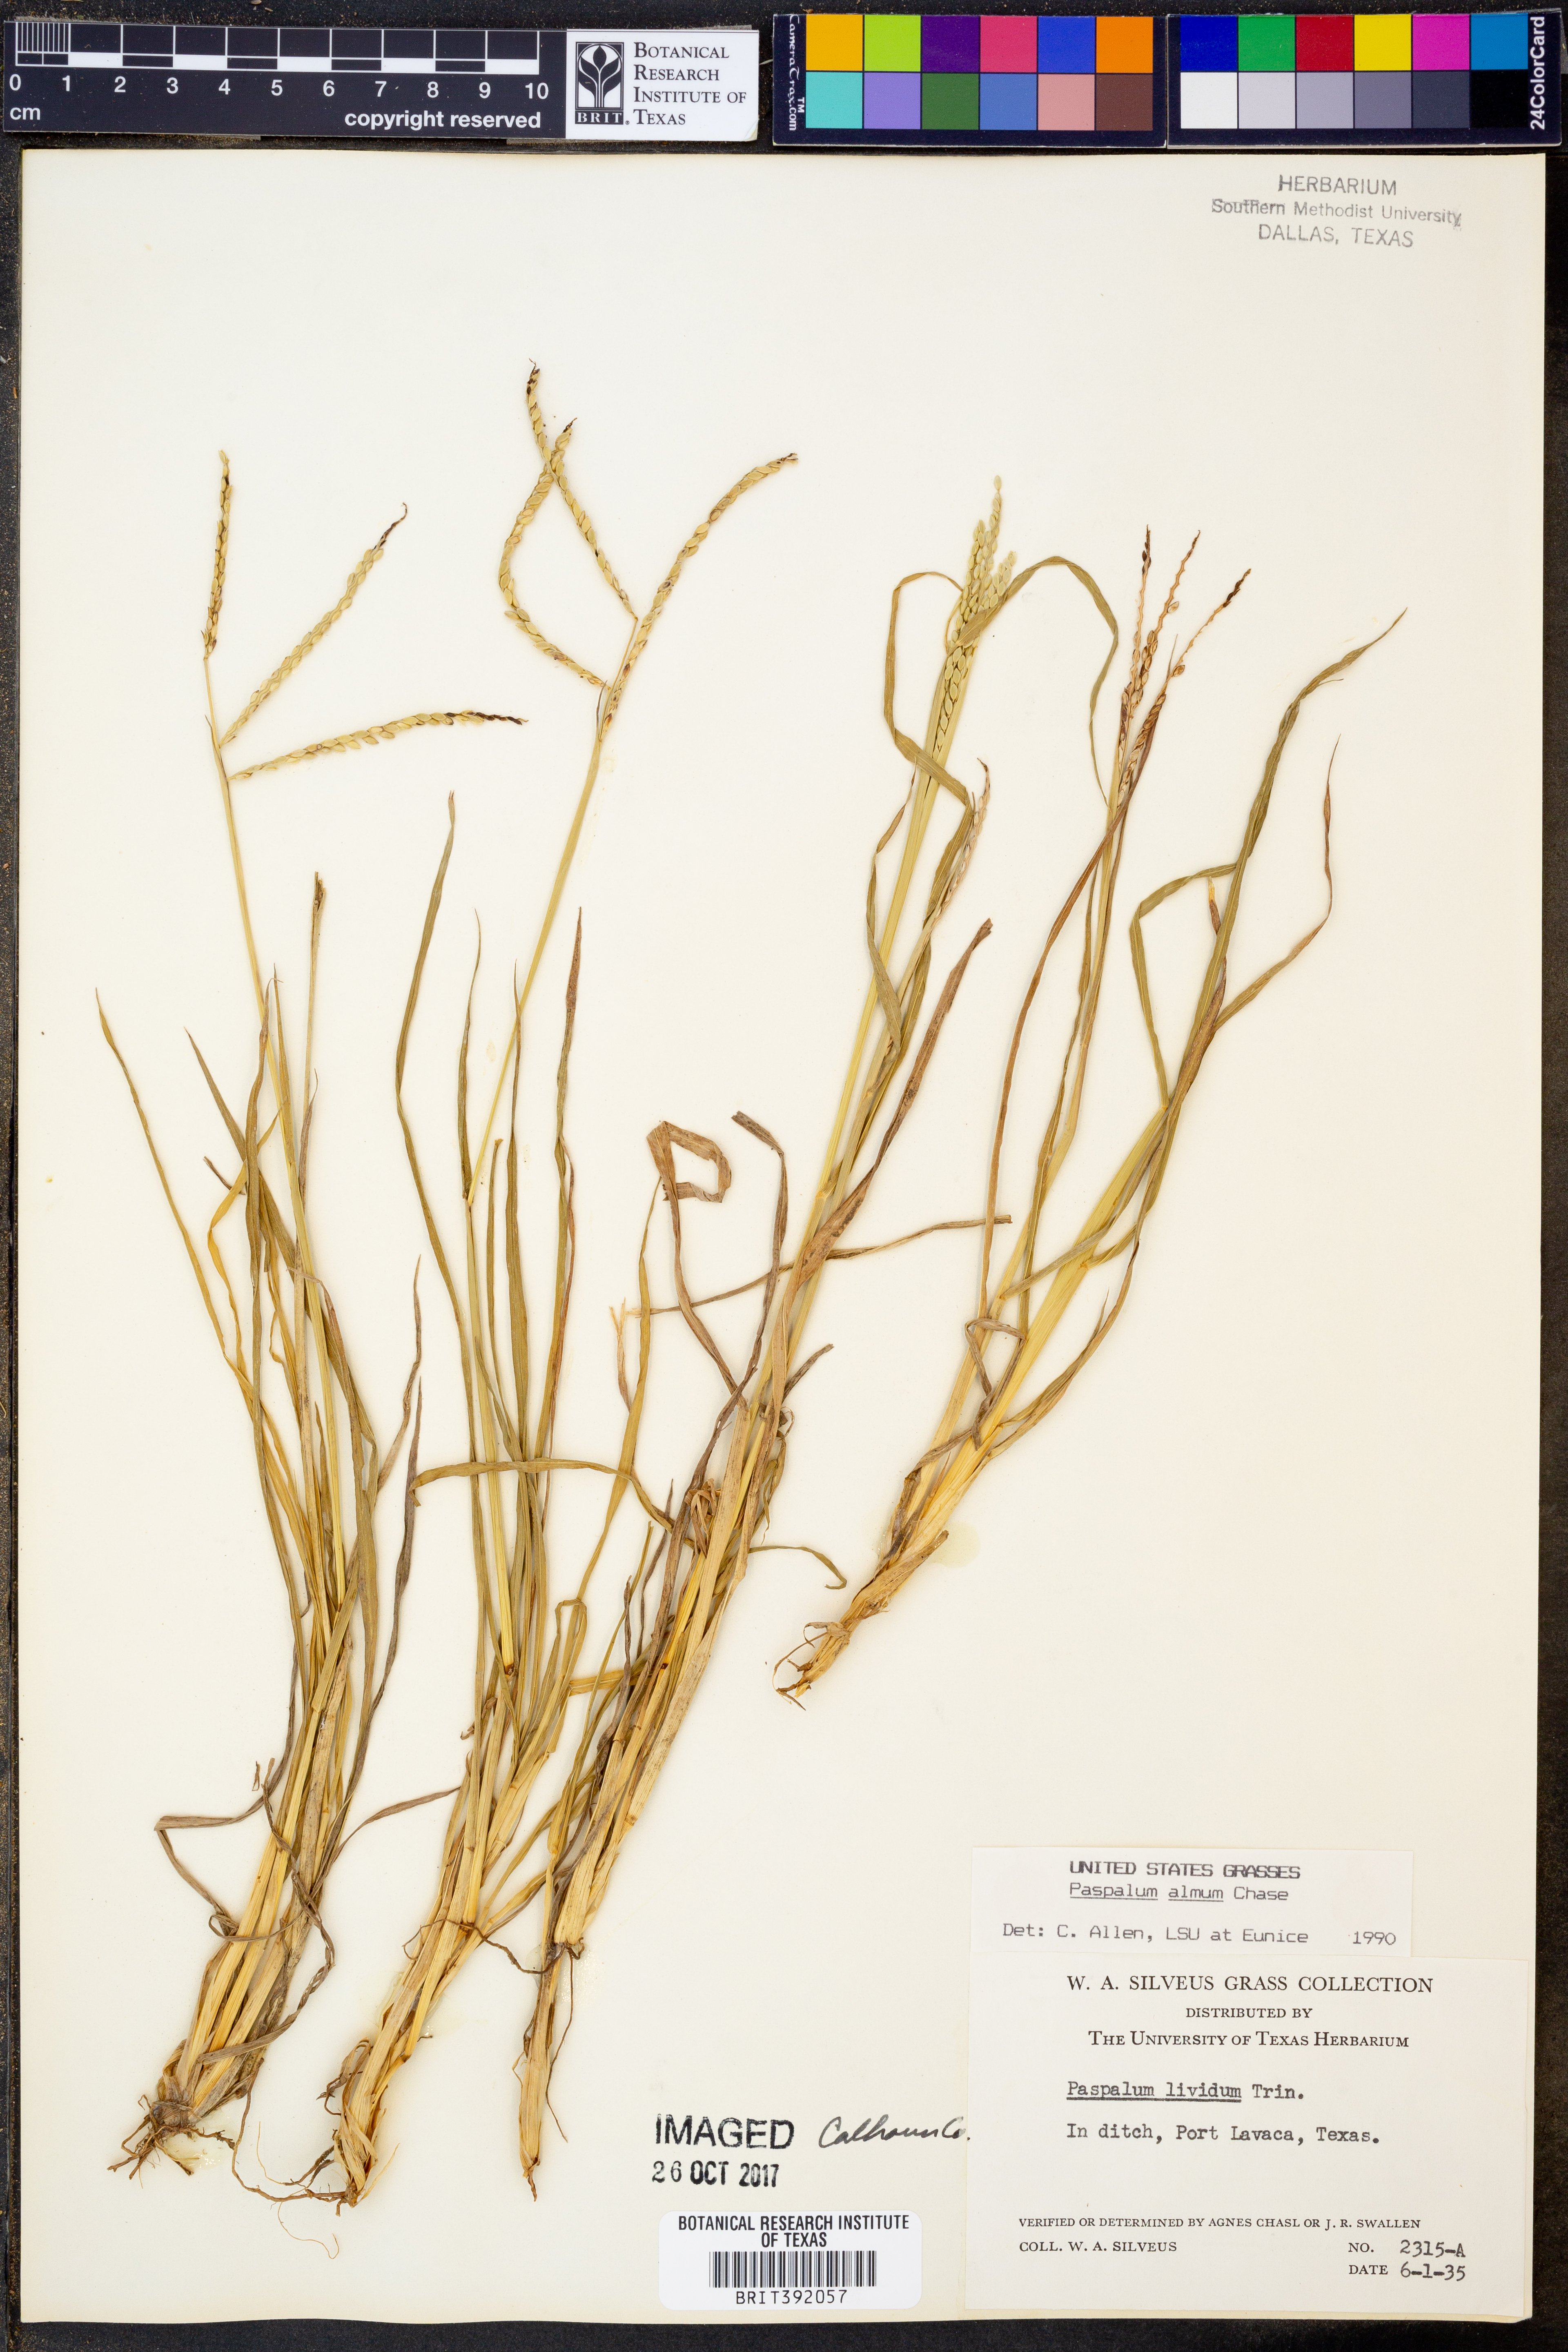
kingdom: Plantae
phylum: Tracheophyta
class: Liliopsida
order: Poales
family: Poaceae
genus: Paspalum
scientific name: Paspalum almum
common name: Comb's crowngrass
